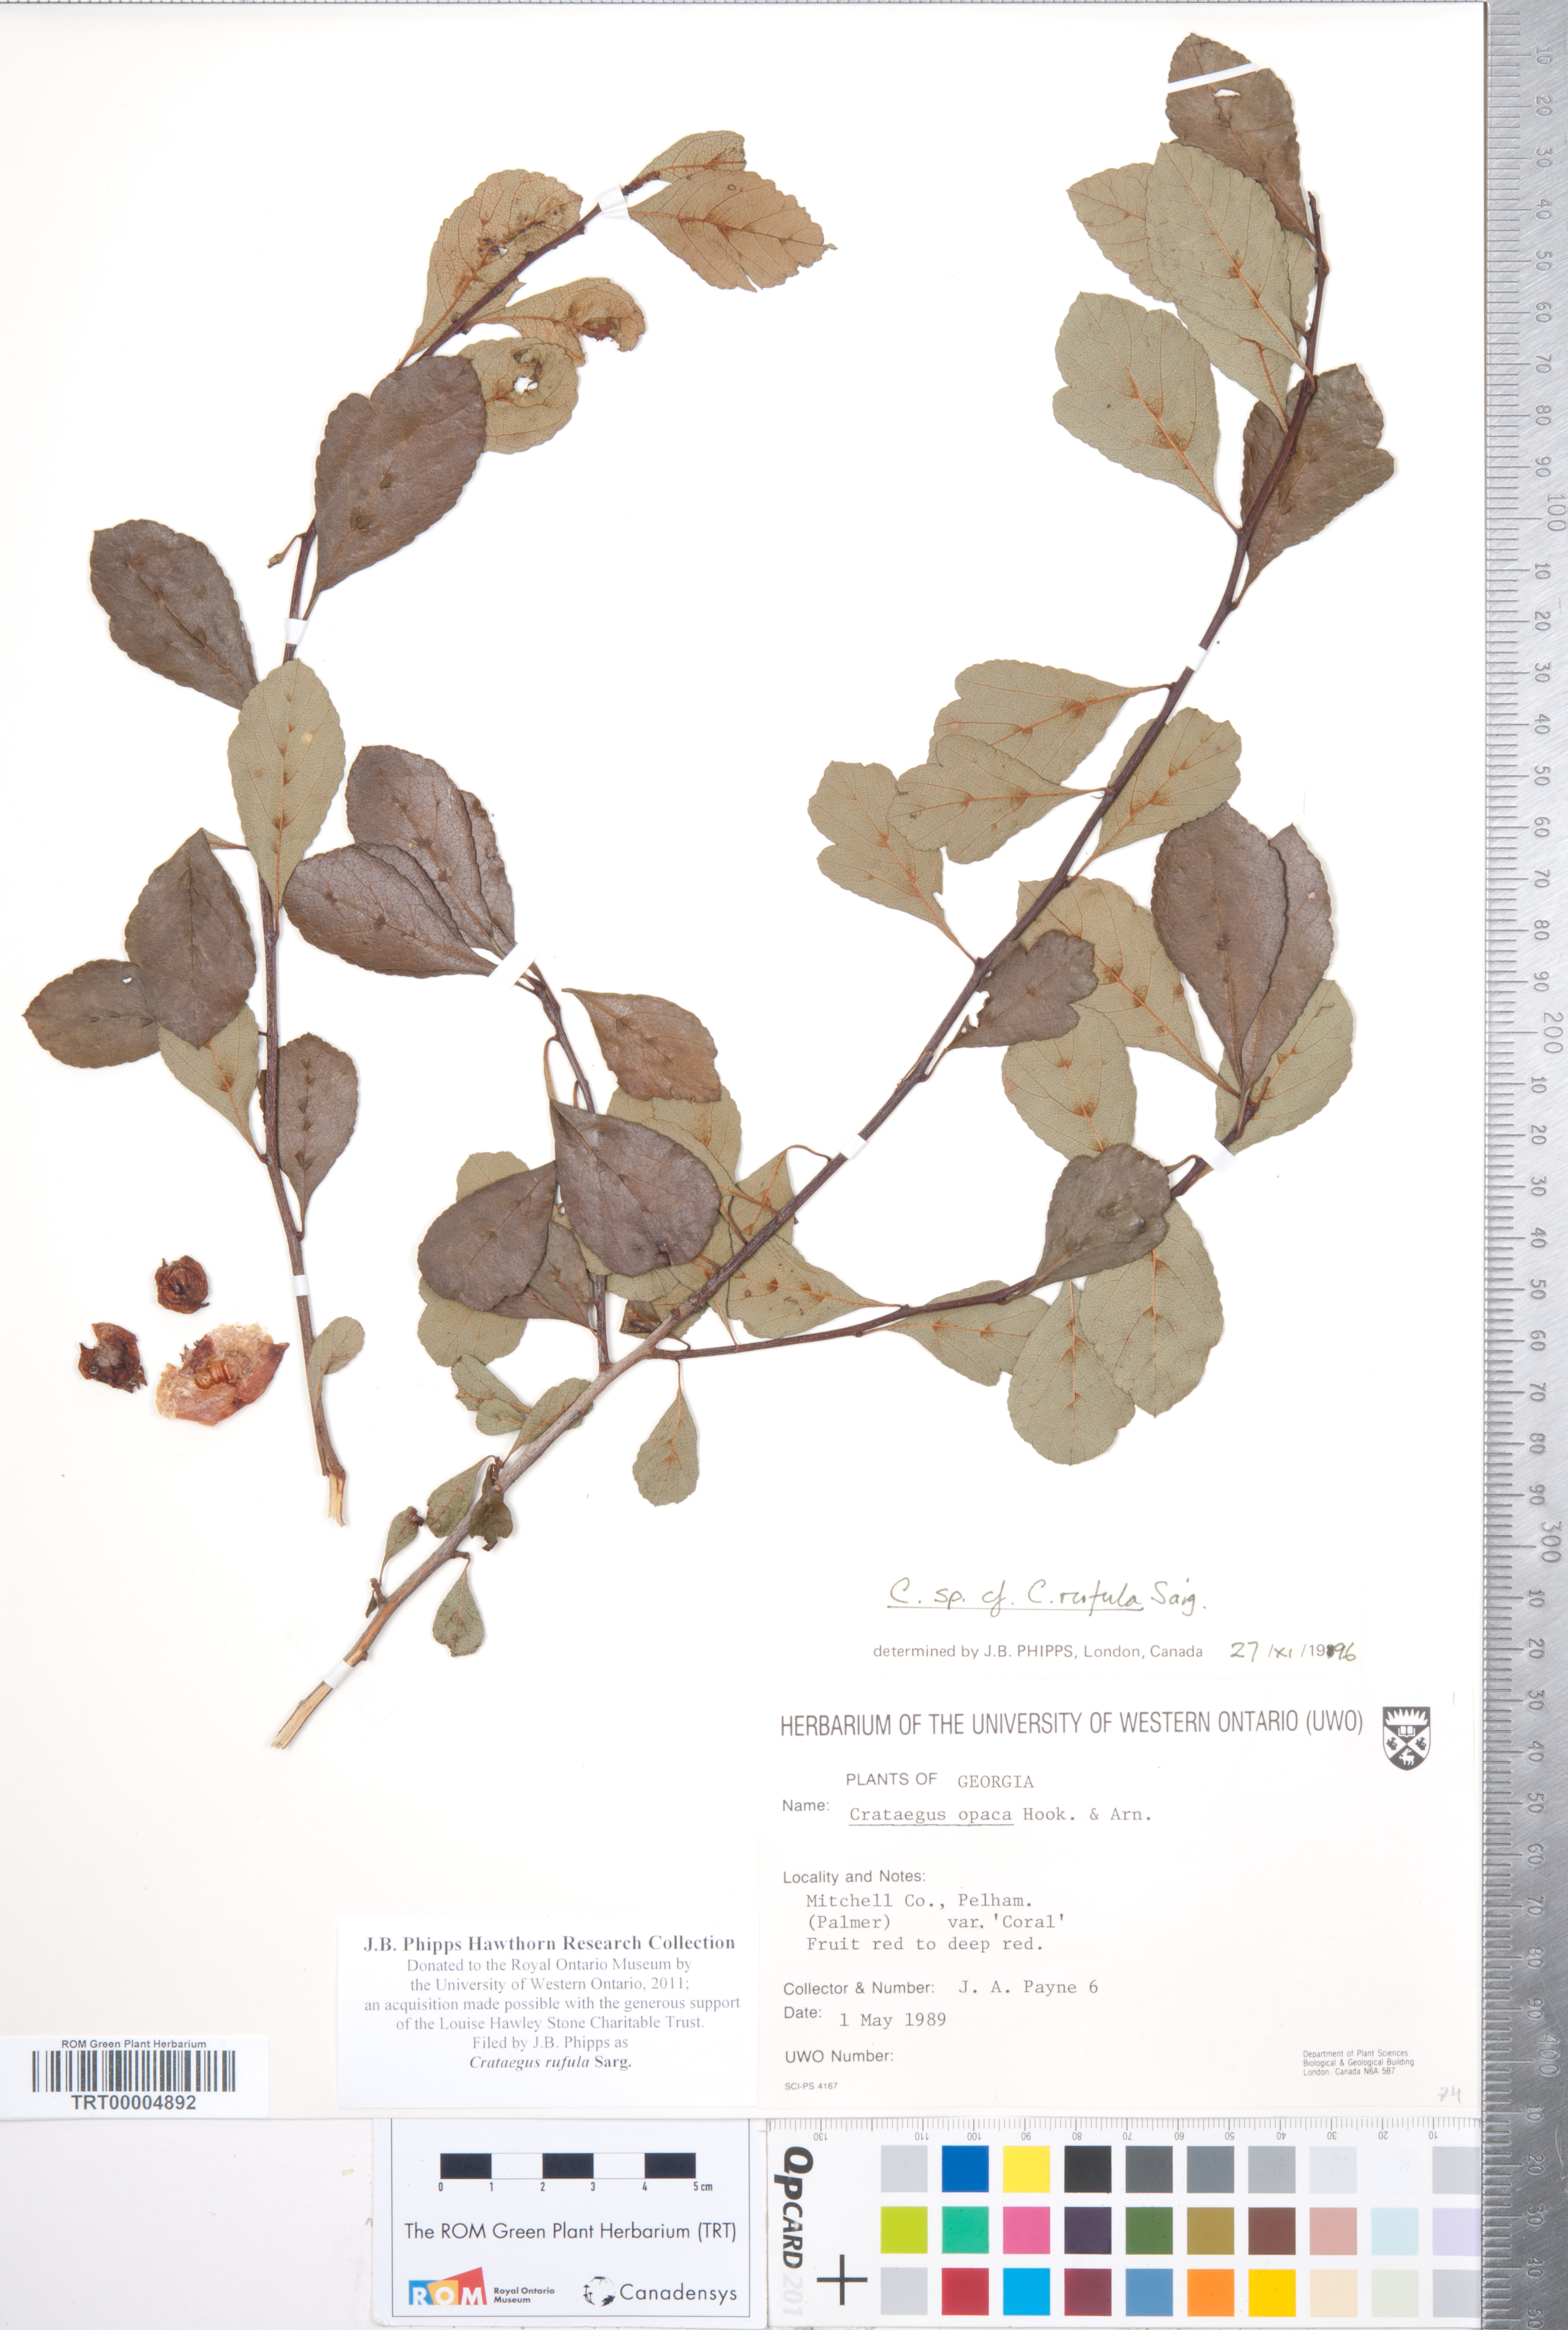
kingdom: Plantae
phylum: Tracheophyta
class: Magnoliopsida
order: Rosales
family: Rosaceae
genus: Crataegus
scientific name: Crataegus rufula
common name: Rufous mayhaw
